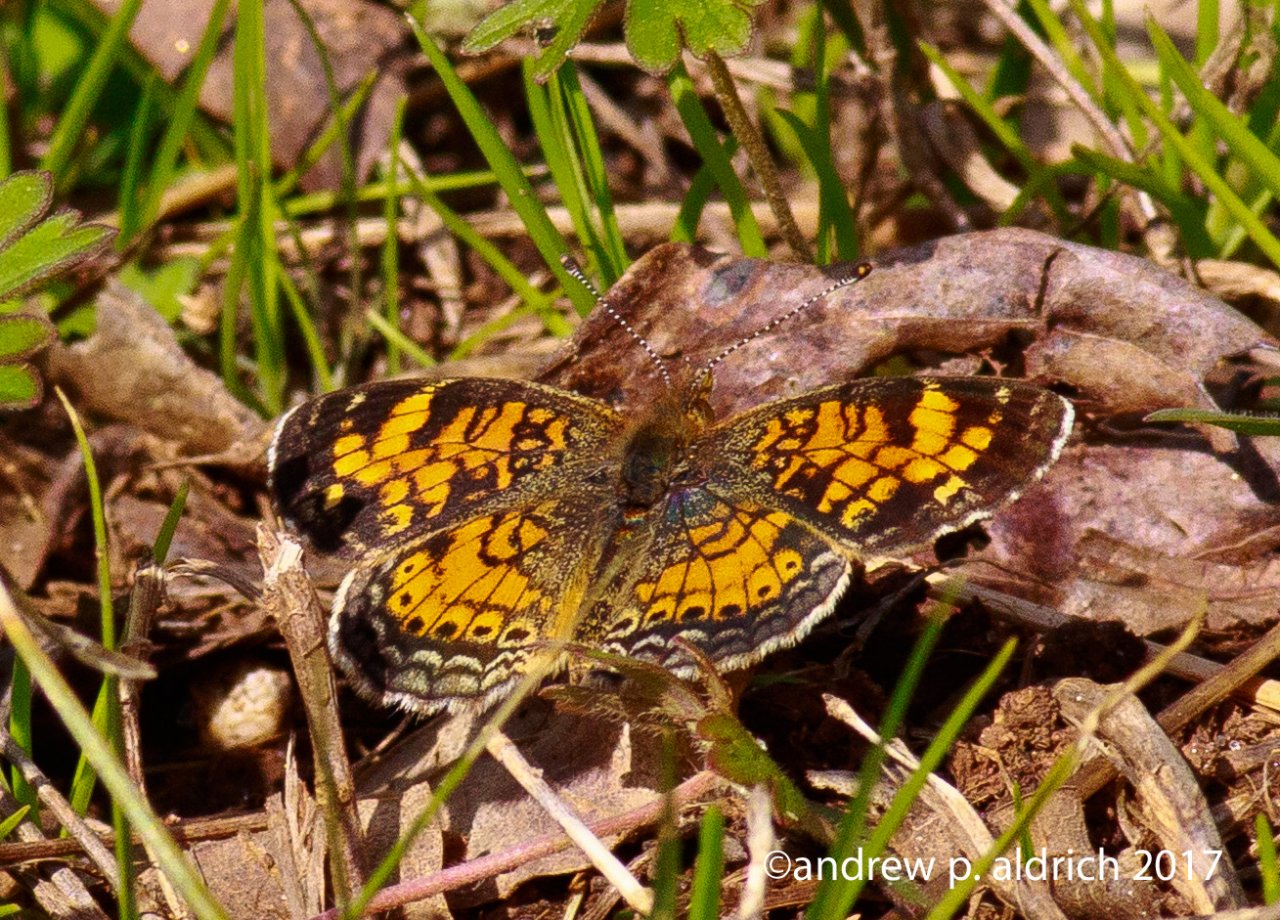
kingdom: Animalia
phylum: Arthropoda
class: Insecta
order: Lepidoptera
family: Nymphalidae
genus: Phyciodes
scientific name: Phyciodes tharos
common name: Pearl Crescent
